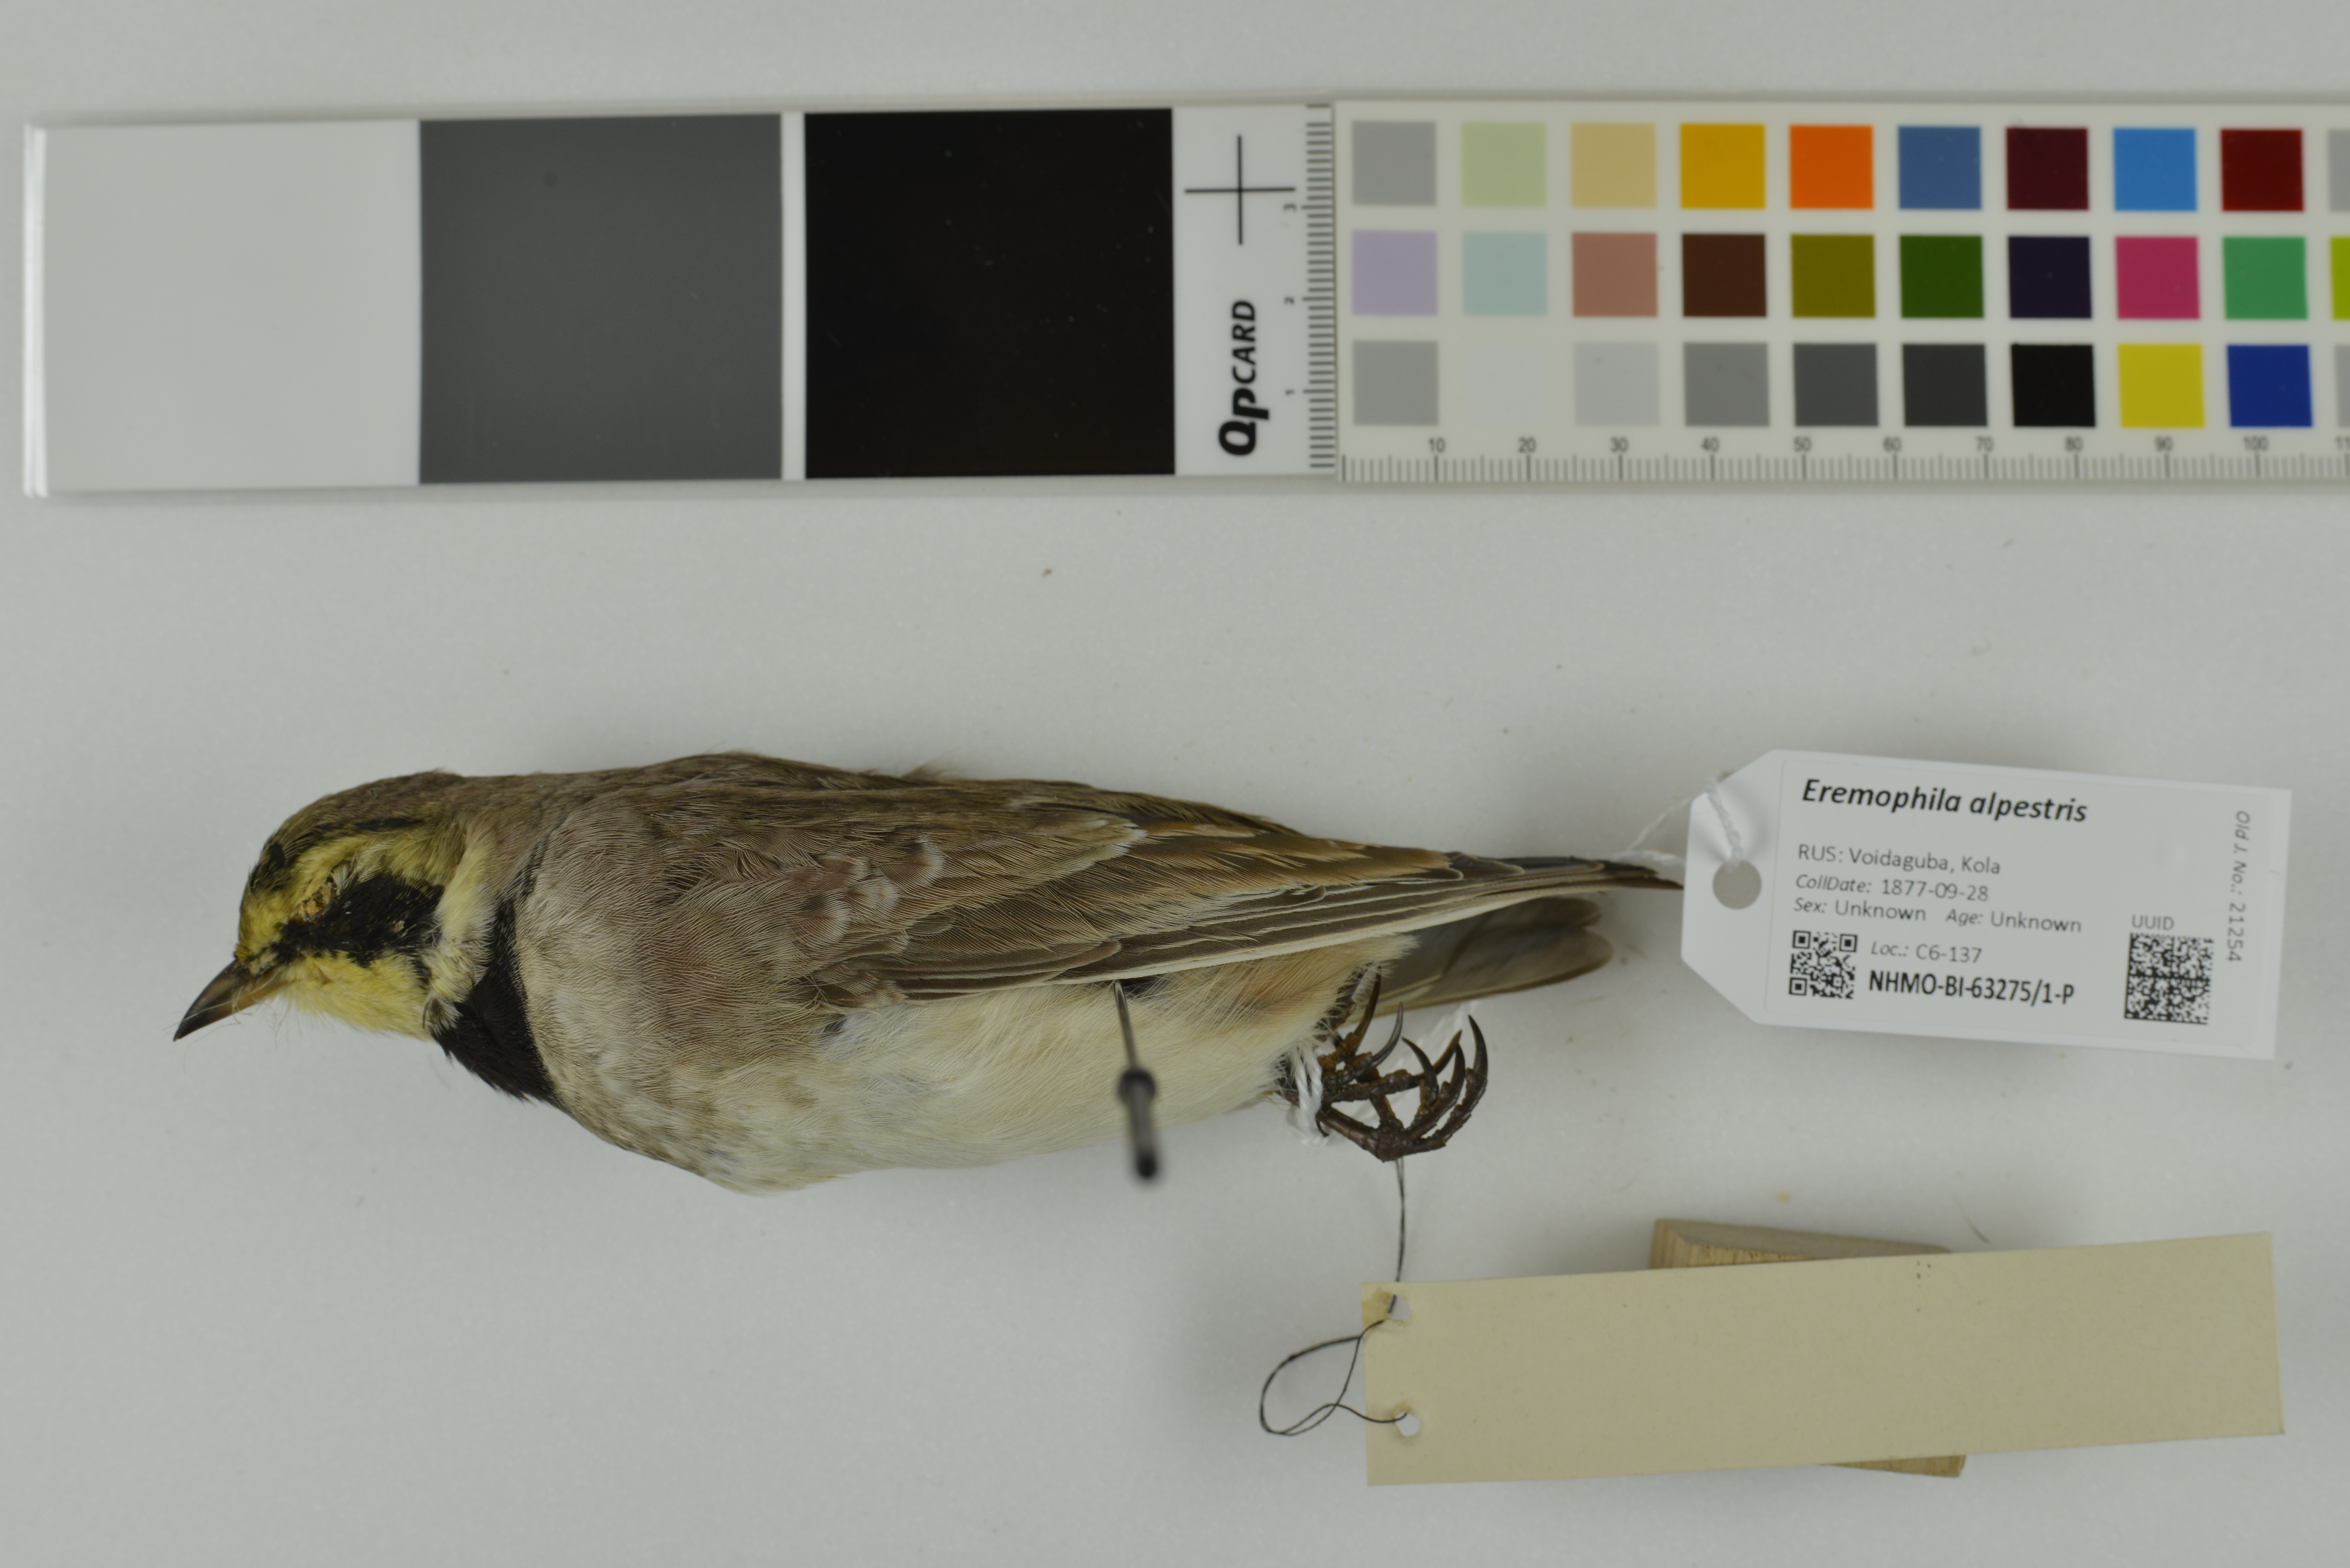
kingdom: Animalia
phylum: Chordata
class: Aves
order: Passeriformes
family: Alaudidae
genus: Eremophila
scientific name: Eremophila alpestris
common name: Horned lark
